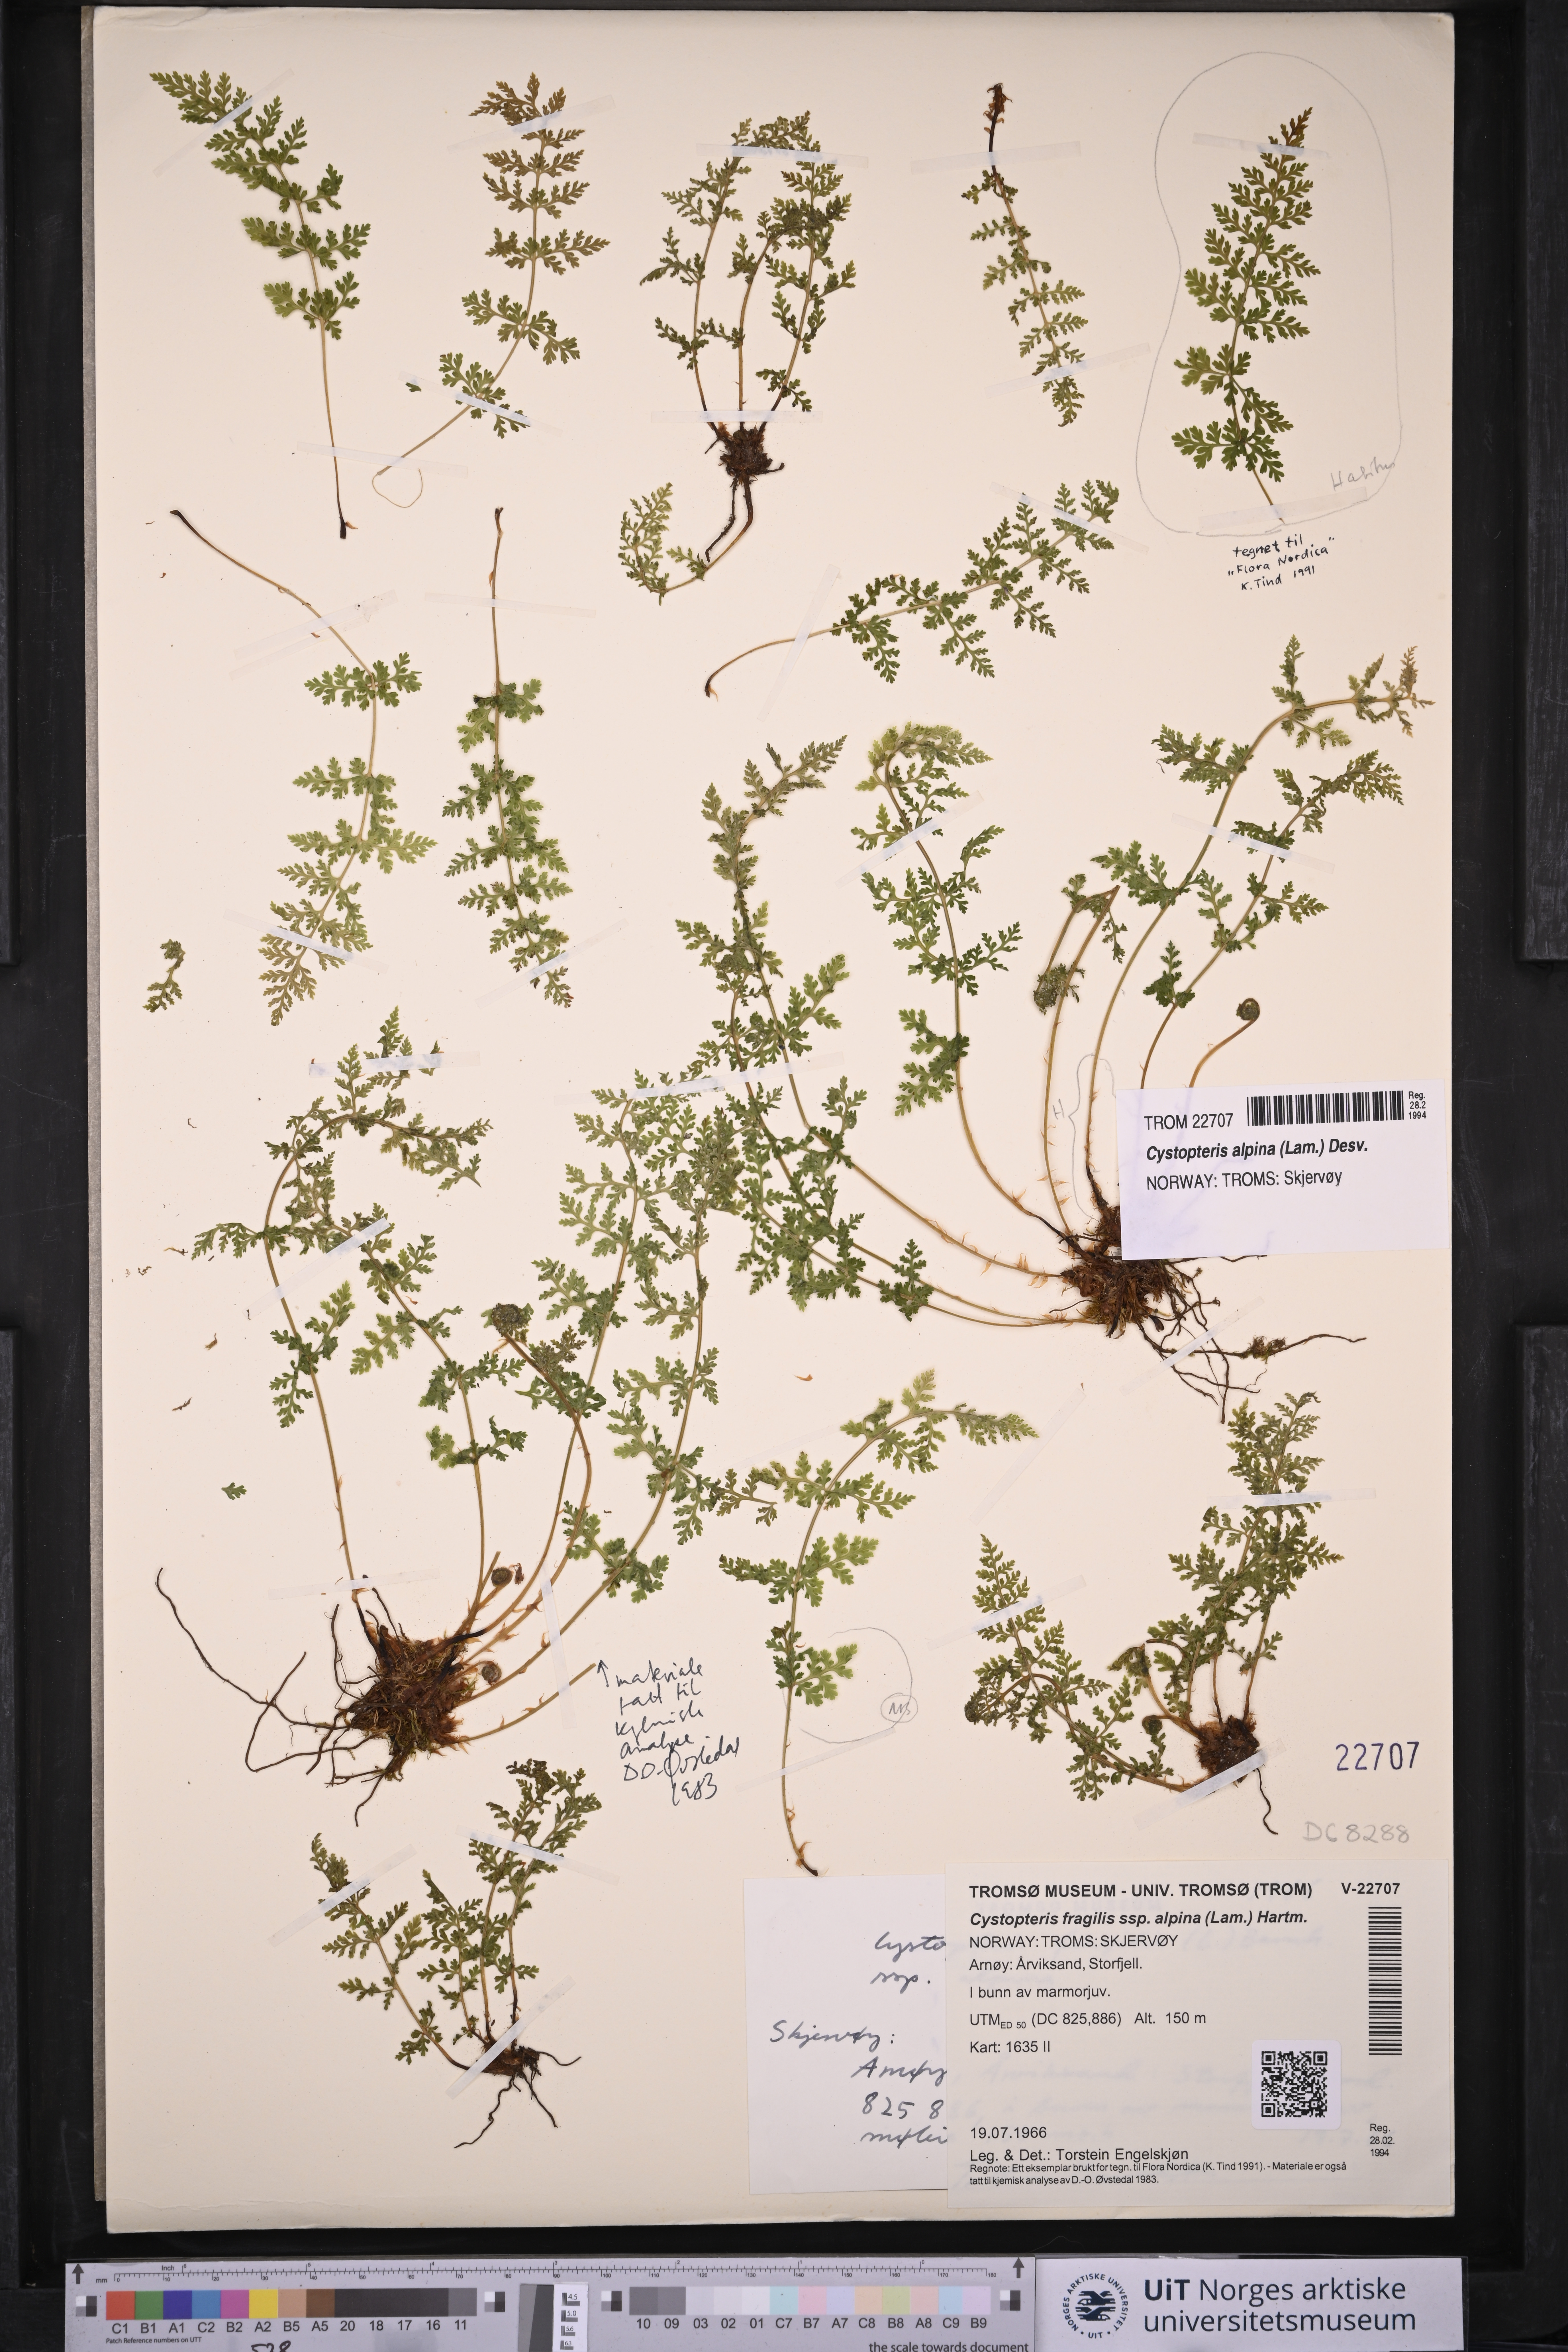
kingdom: Plantae
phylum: Tracheophyta
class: Polypodiopsida
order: Polypodiales
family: Cystopteridaceae
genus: Cystopteris
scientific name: Cystopteris alpina
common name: Alpine bladder-fern
